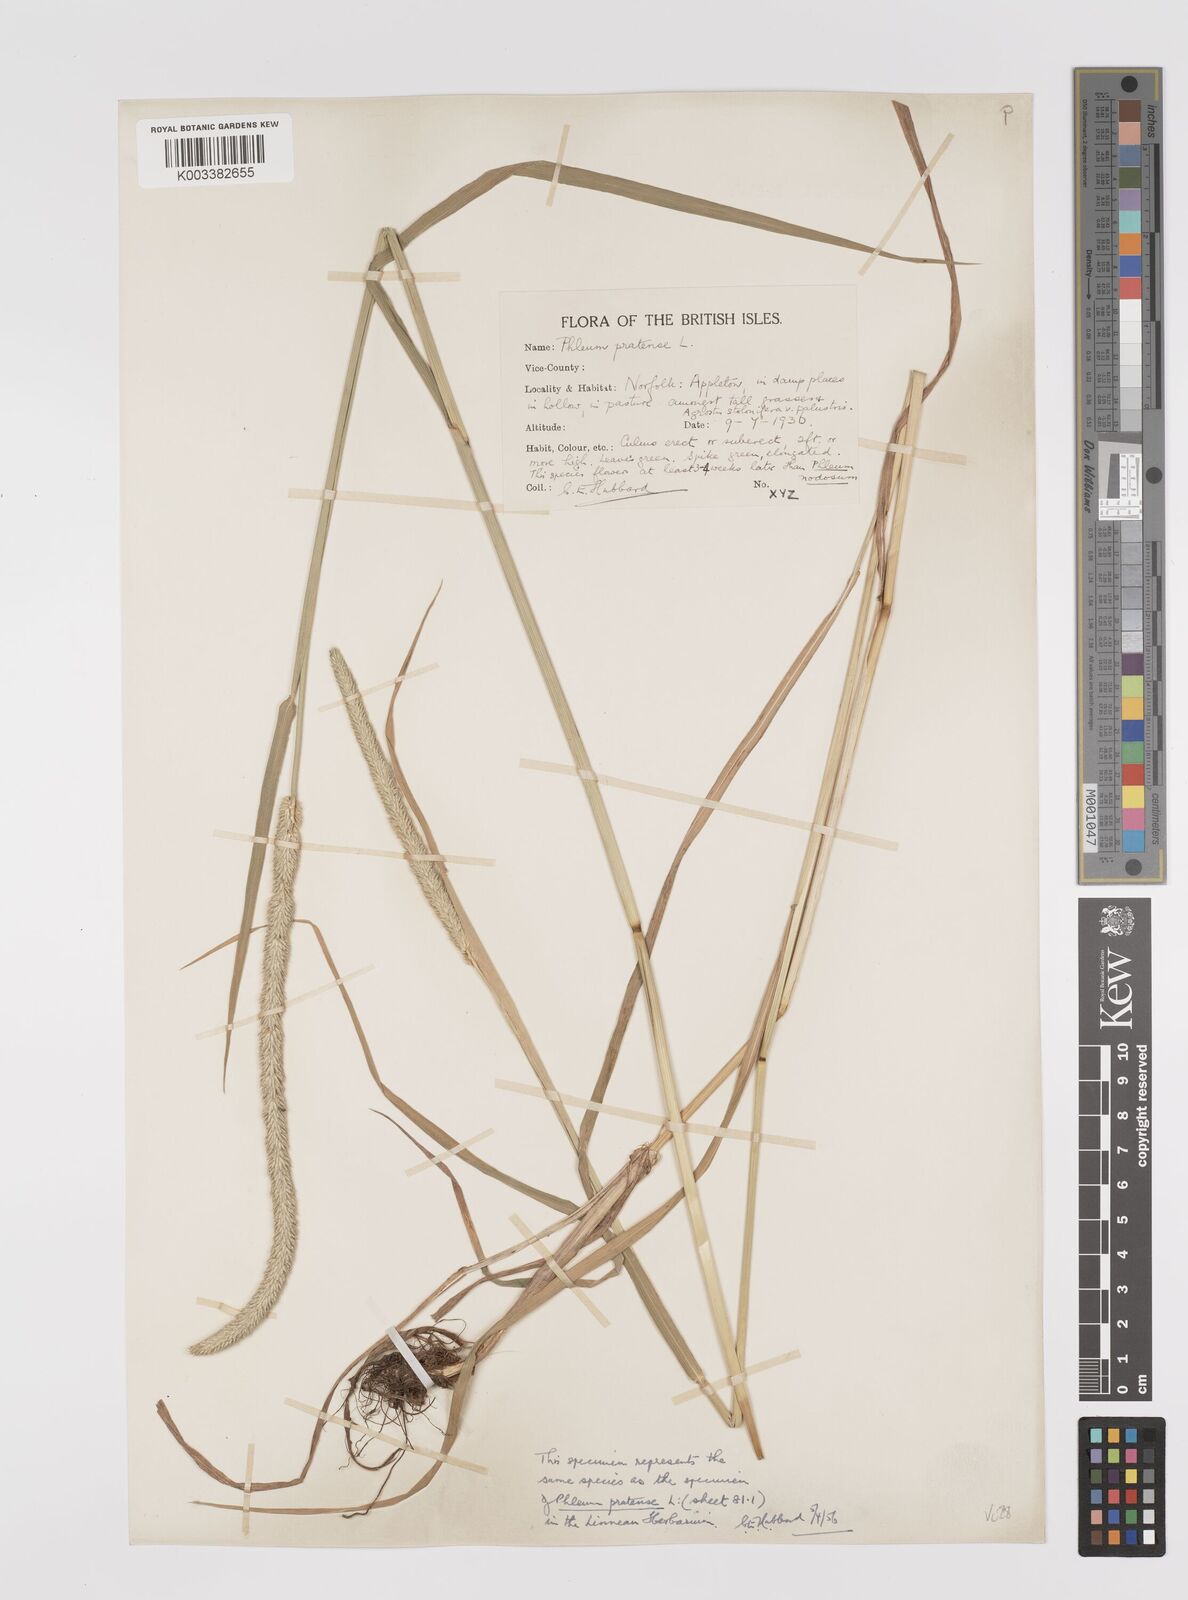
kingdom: Plantae
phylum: Tracheophyta
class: Liliopsida
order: Poales
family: Poaceae
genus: Phleum
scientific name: Phleum pratense
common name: Timothy grass
